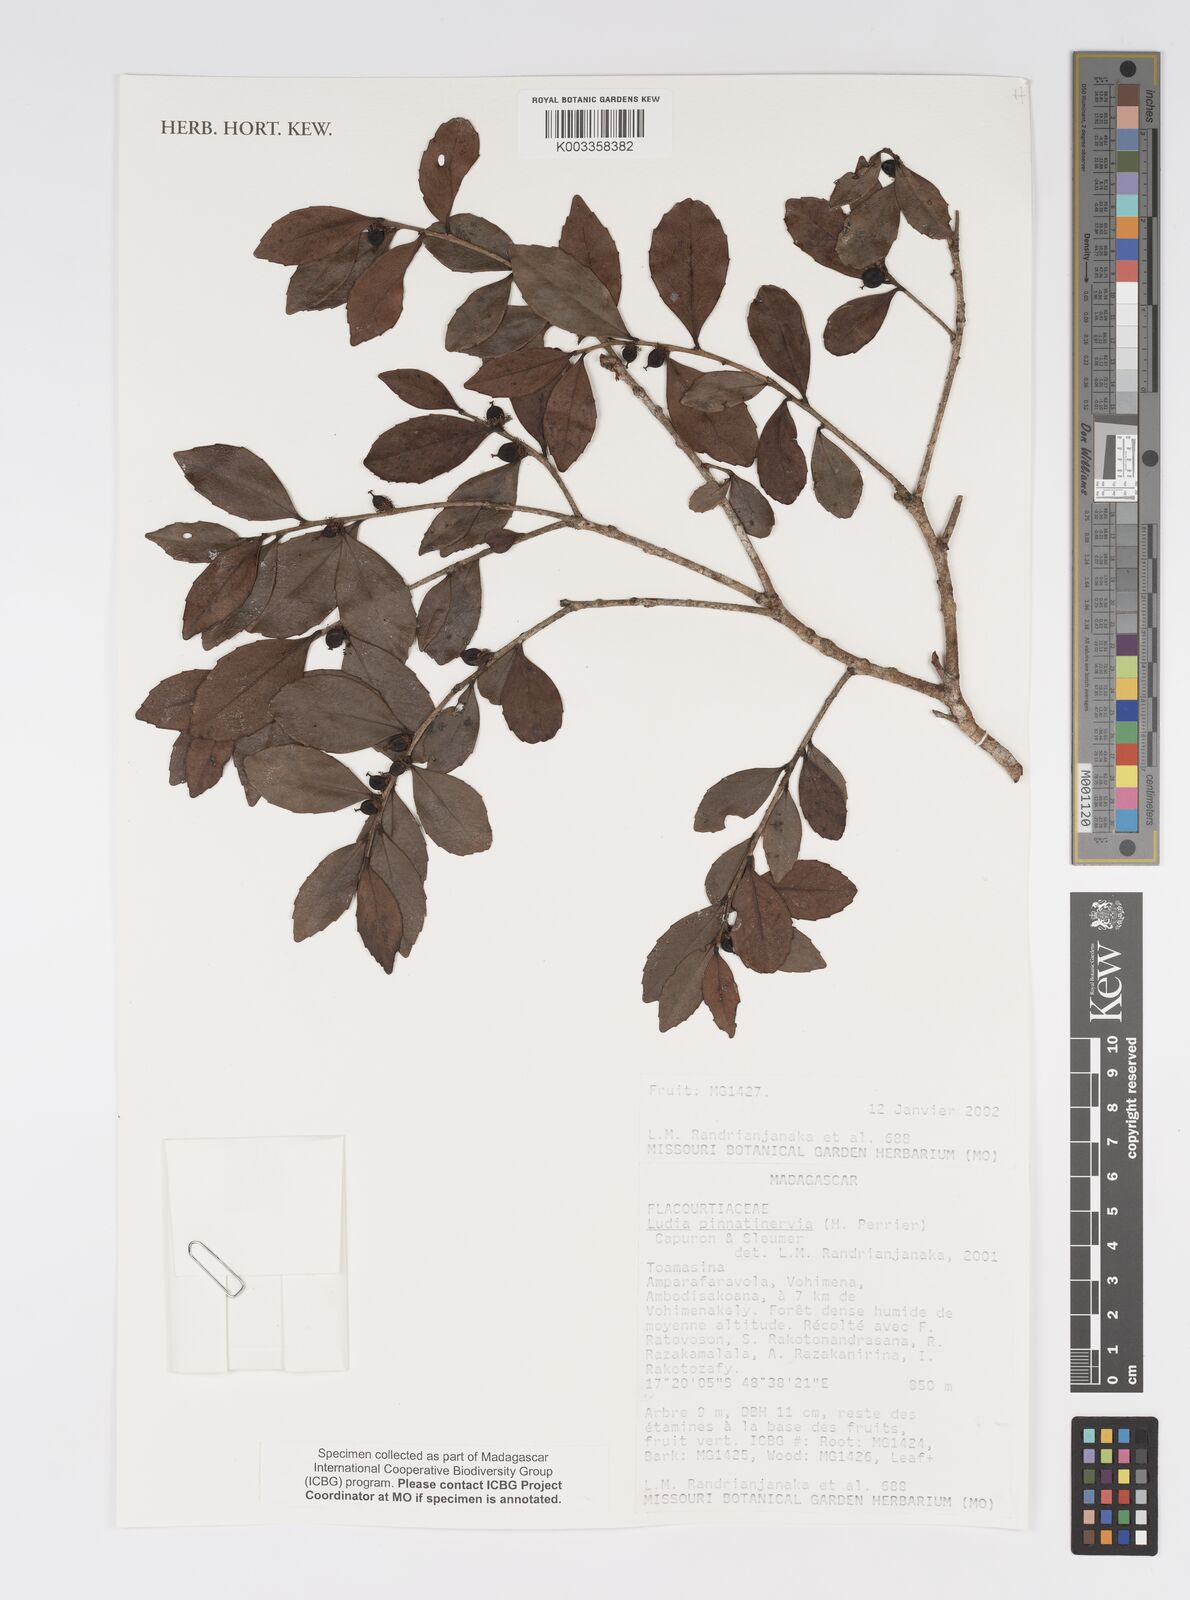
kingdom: Plantae
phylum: Tracheophyta
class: Magnoliopsida
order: Malpighiales
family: Salicaceae
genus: Ludia
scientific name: Ludia pinnatinervia
